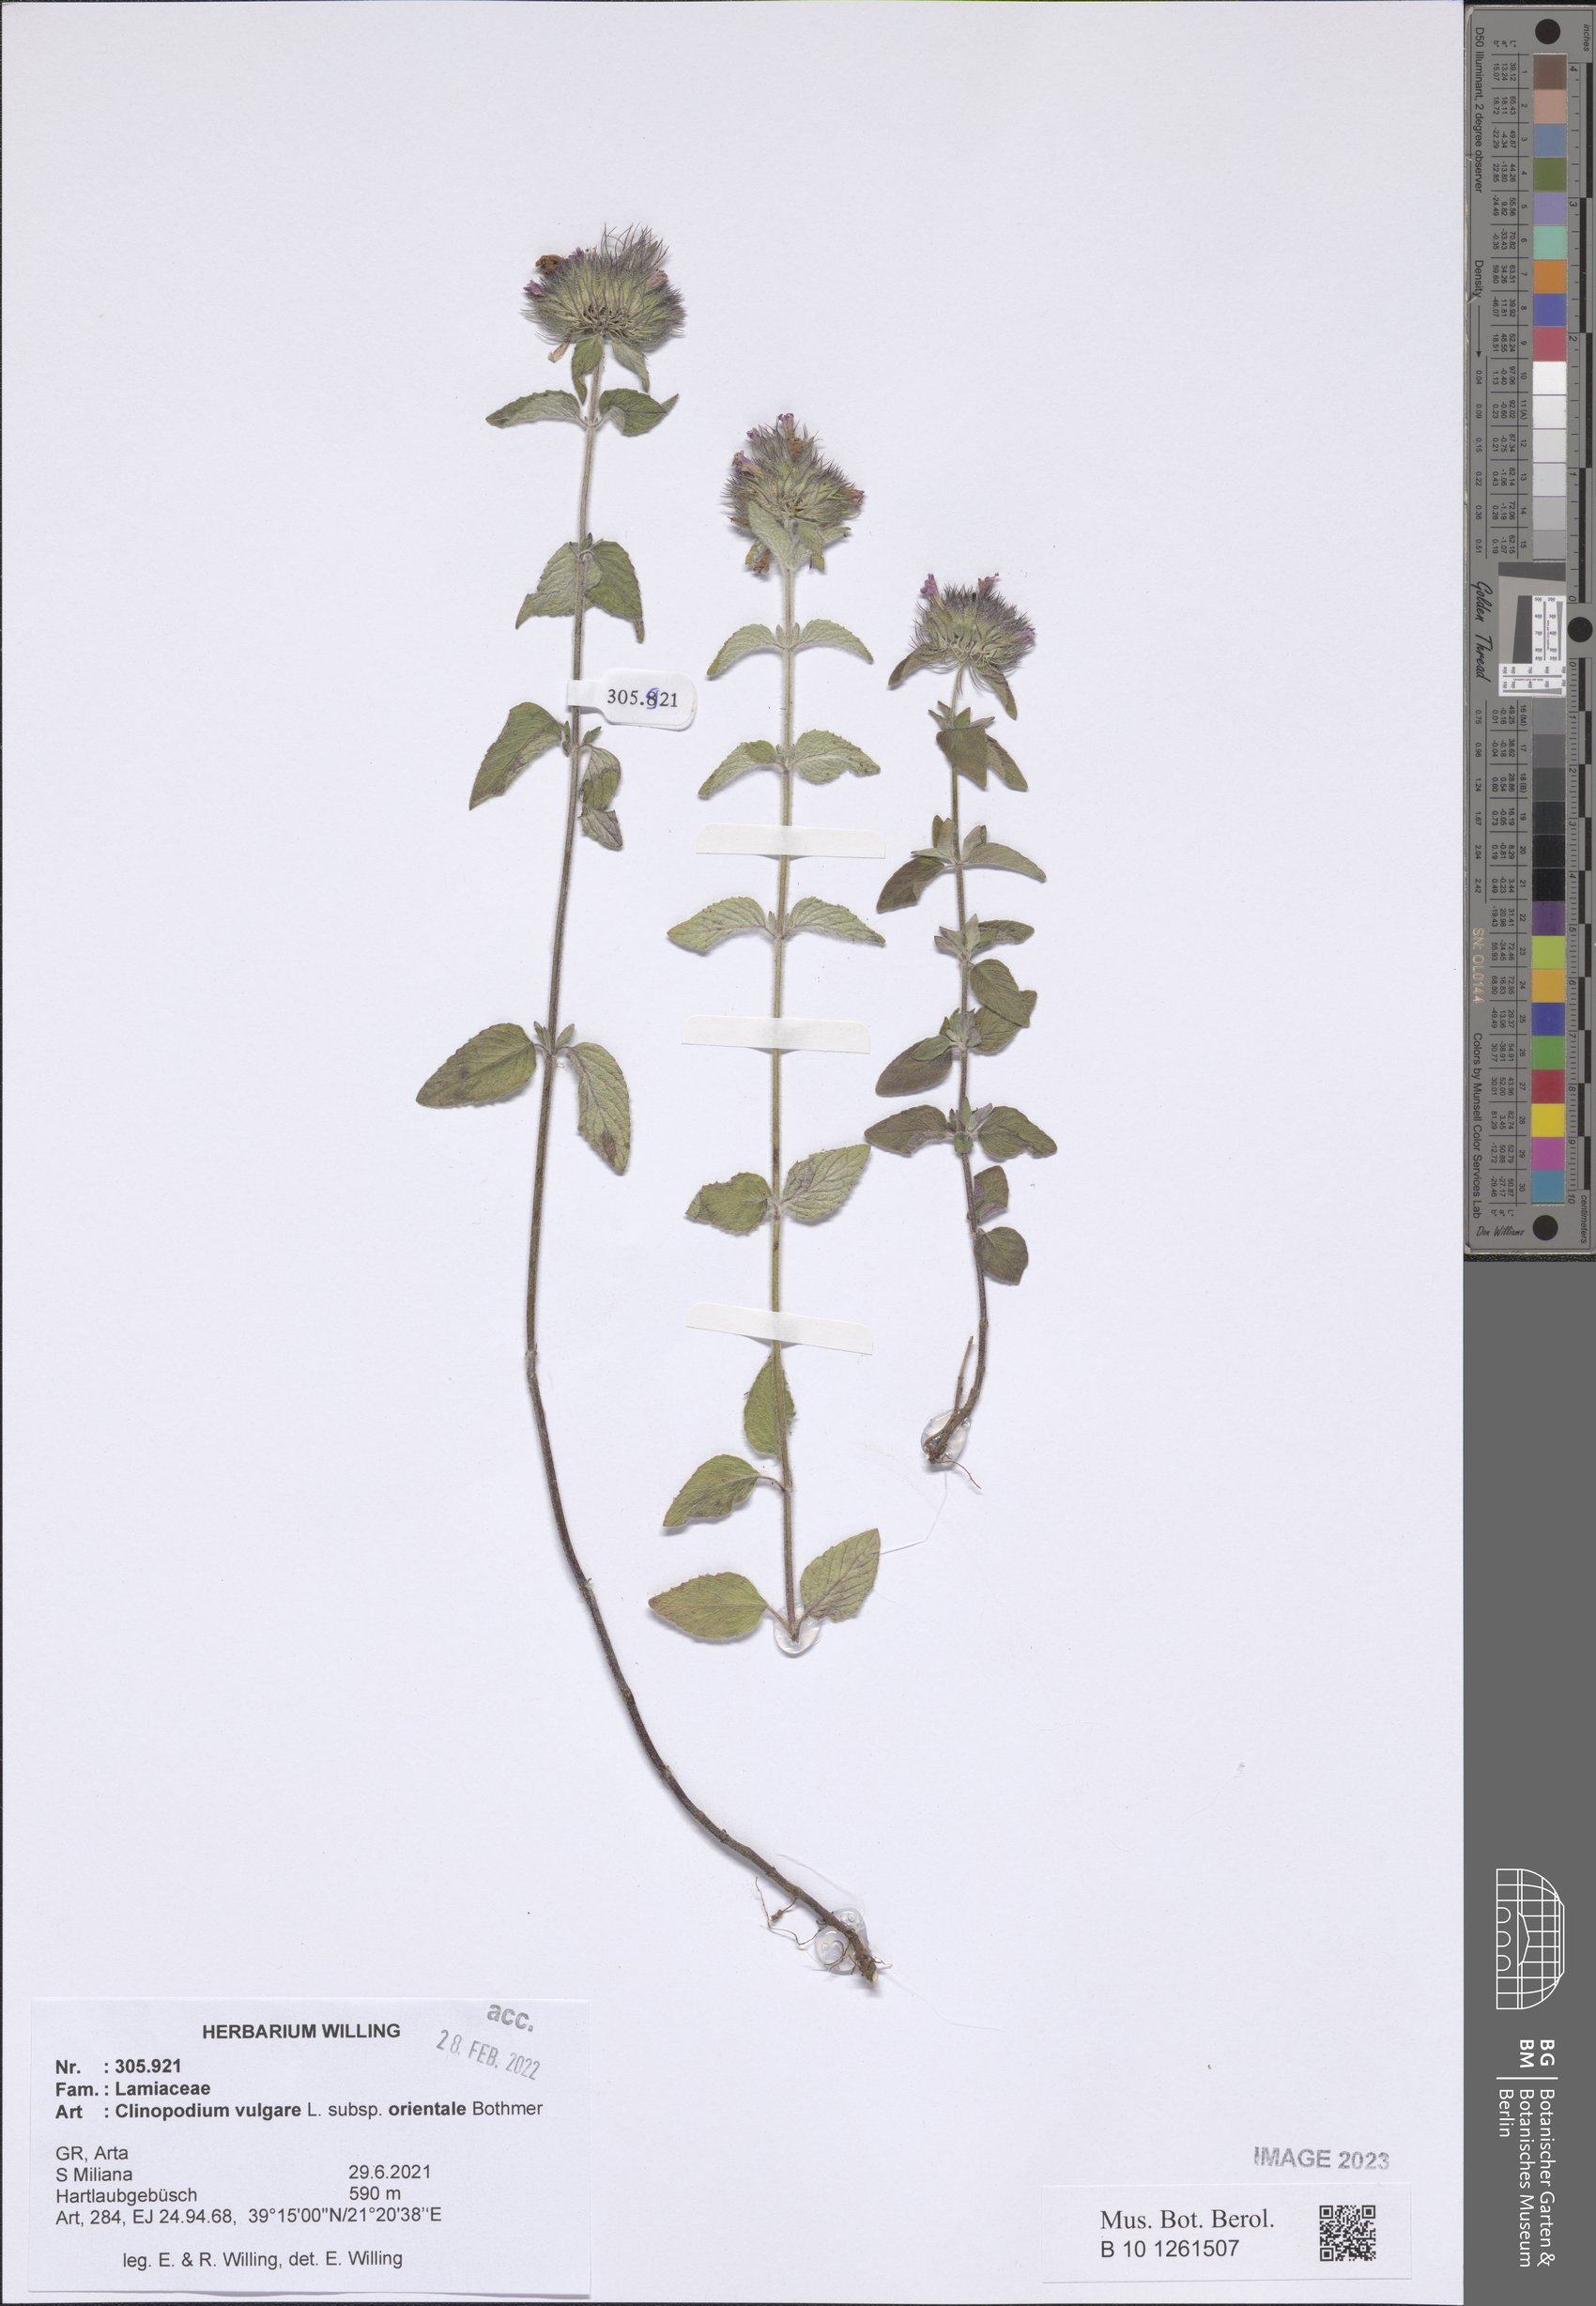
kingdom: Plantae
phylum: Tracheophyta
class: Magnoliopsida
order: Lamiales
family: Lamiaceae
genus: Clinopodium
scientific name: Clinopodium vulgare
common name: Wild basil
